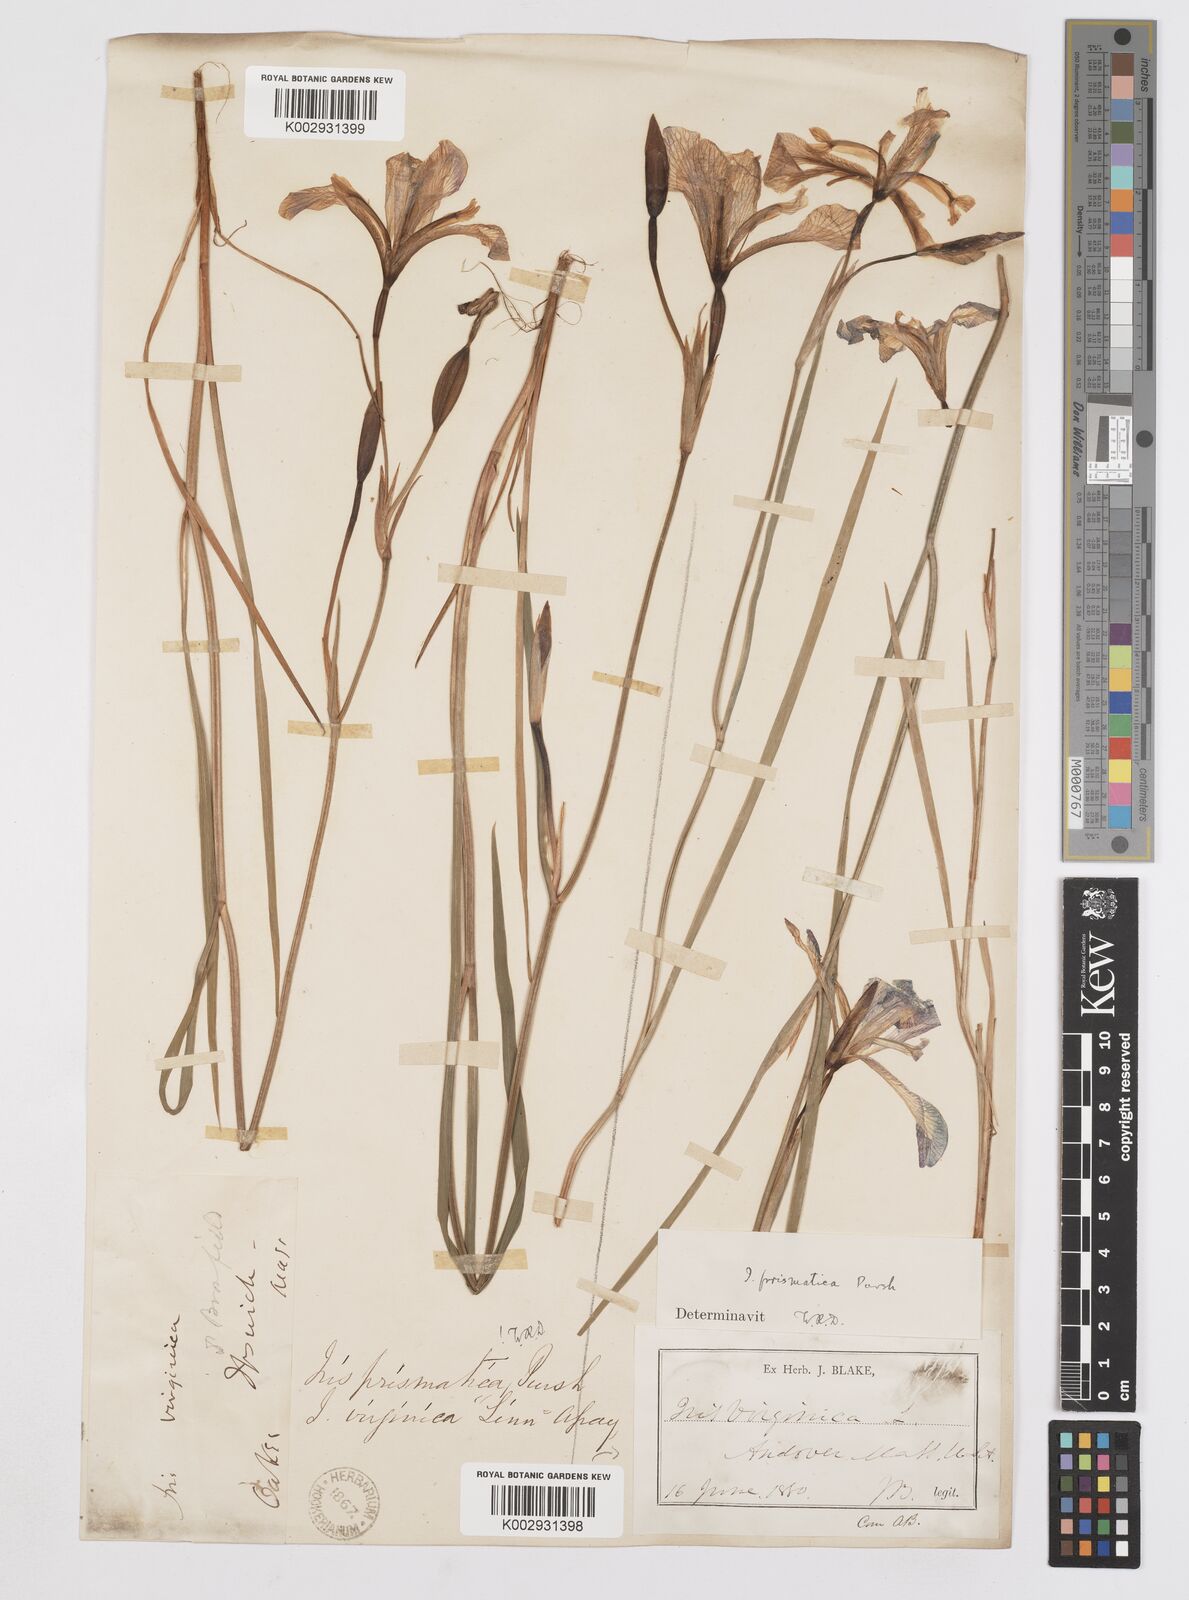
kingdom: Plantae
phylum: Tracheophyta
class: Liliopsida
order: Asparagales
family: Iridaceae
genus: Iris
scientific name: Iris prismatica
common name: Slender blue flag
